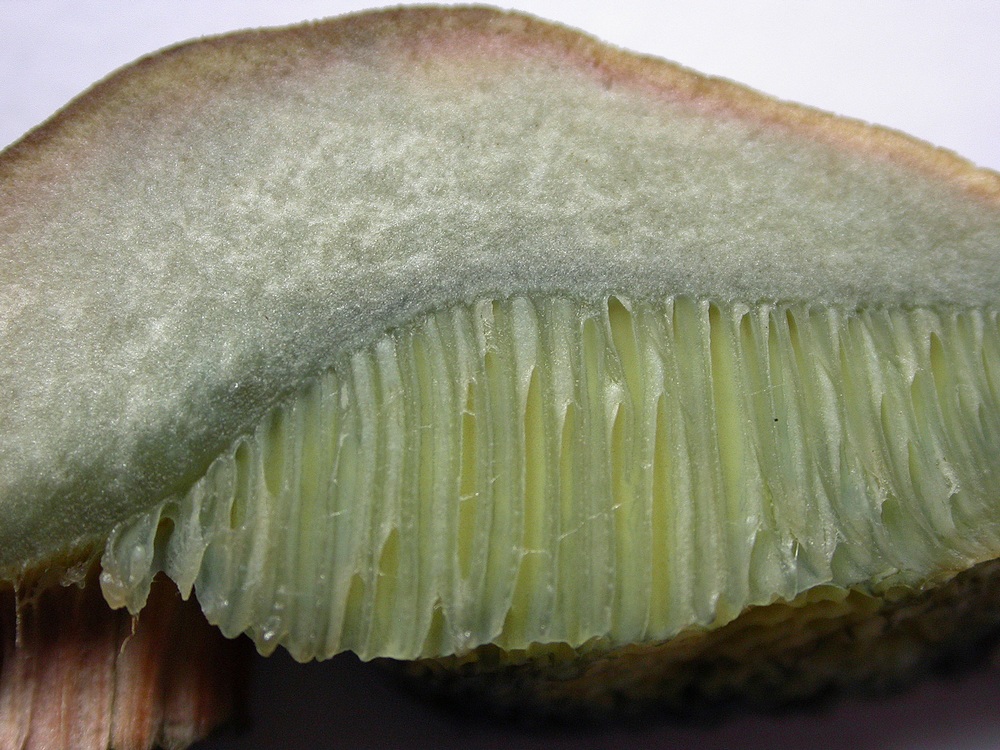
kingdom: Fungi
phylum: Basidiomycota
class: Agaricomycetes
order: Boletales
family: Boletaceae
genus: Hortiboletus
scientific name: Hortiboletus bubalinus
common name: aurora-rørhat
